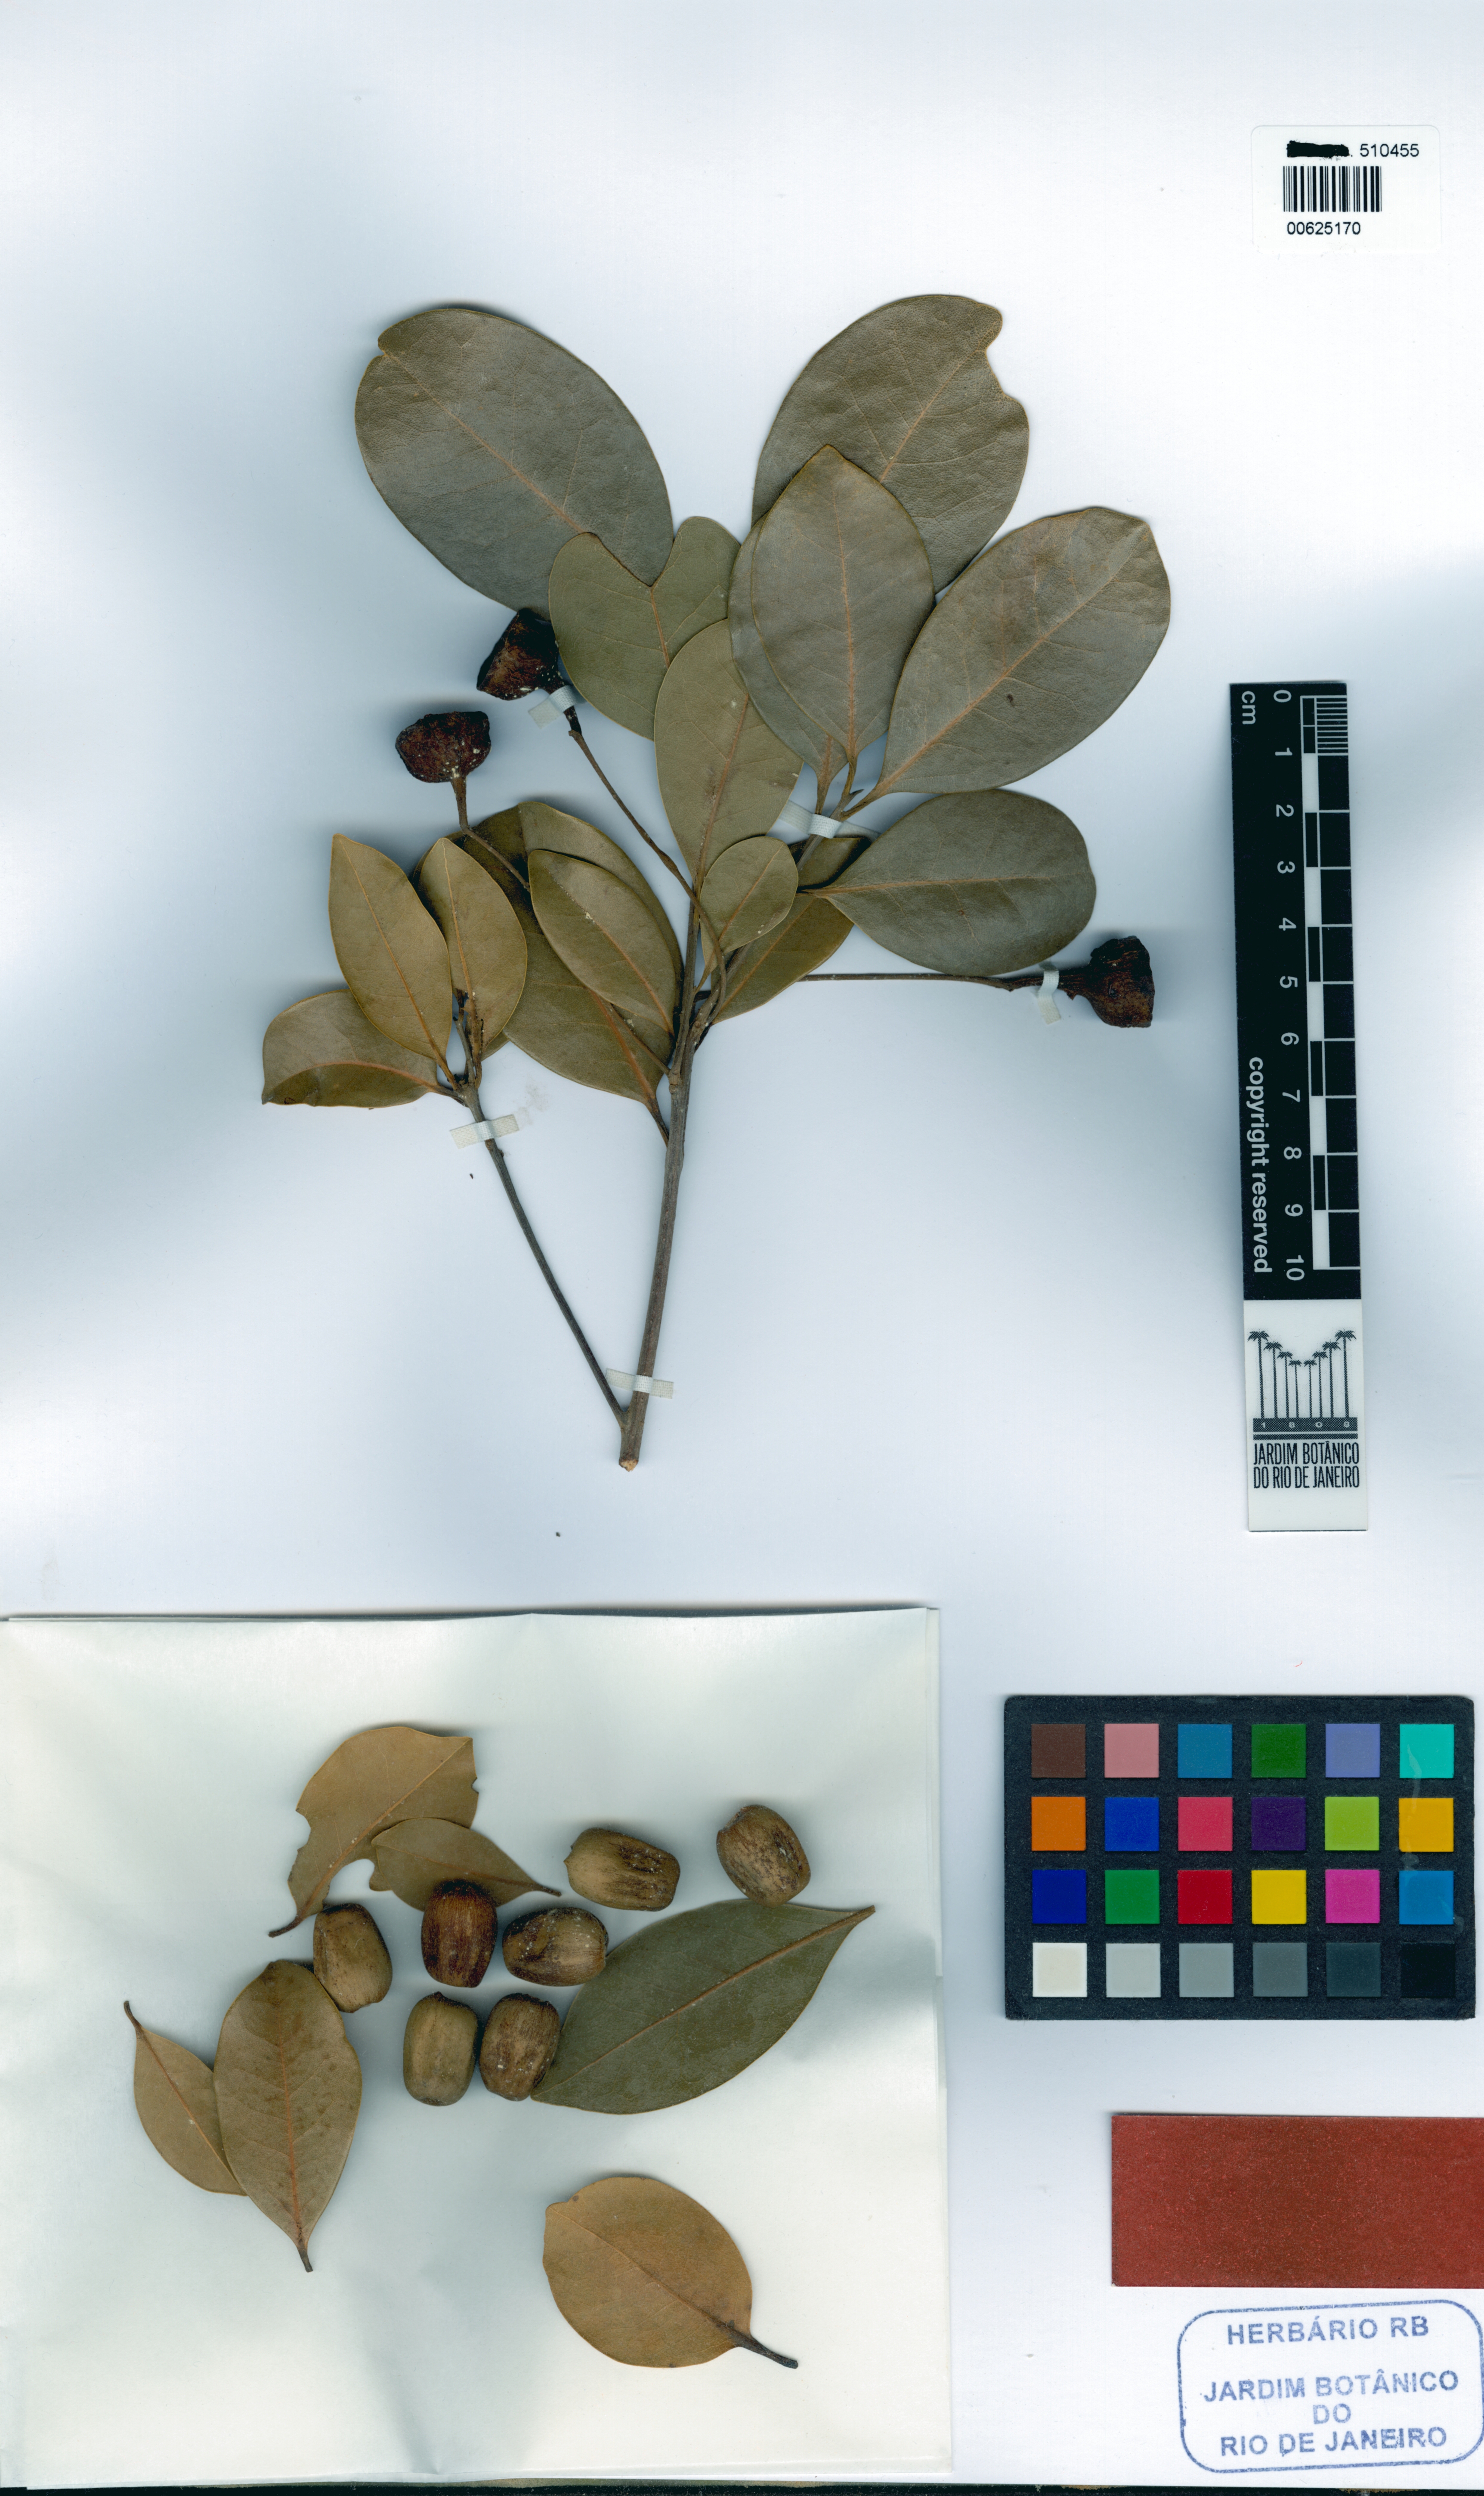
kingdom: Plantae
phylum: Tracheophyta
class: Magnoliopsida
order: Laurales
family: Lauraceae
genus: Ocotea
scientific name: Ocotea arenicola
